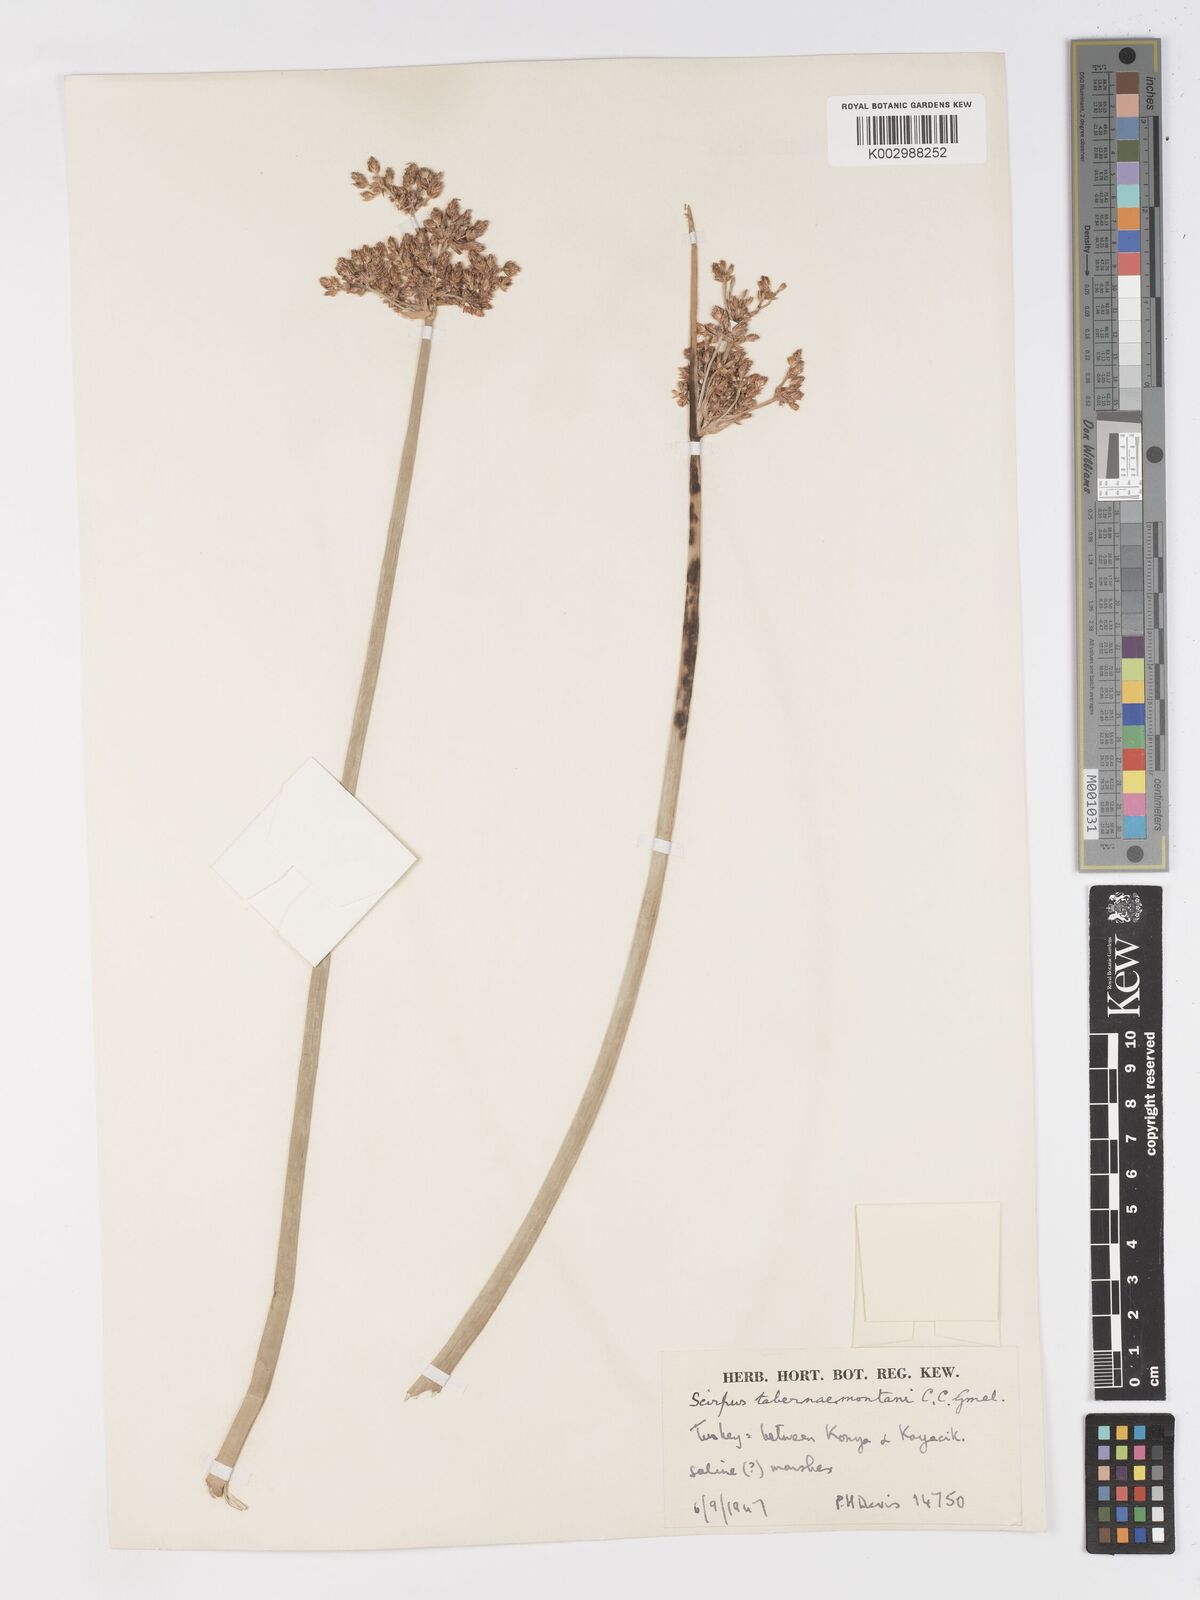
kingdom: Plantae
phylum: Tracheophyta
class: Liliopsida
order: Poales
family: Cyperaceae
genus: Schoenoplectus
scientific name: Schoenoplectus tabernaemontani
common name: Grey club-rush
